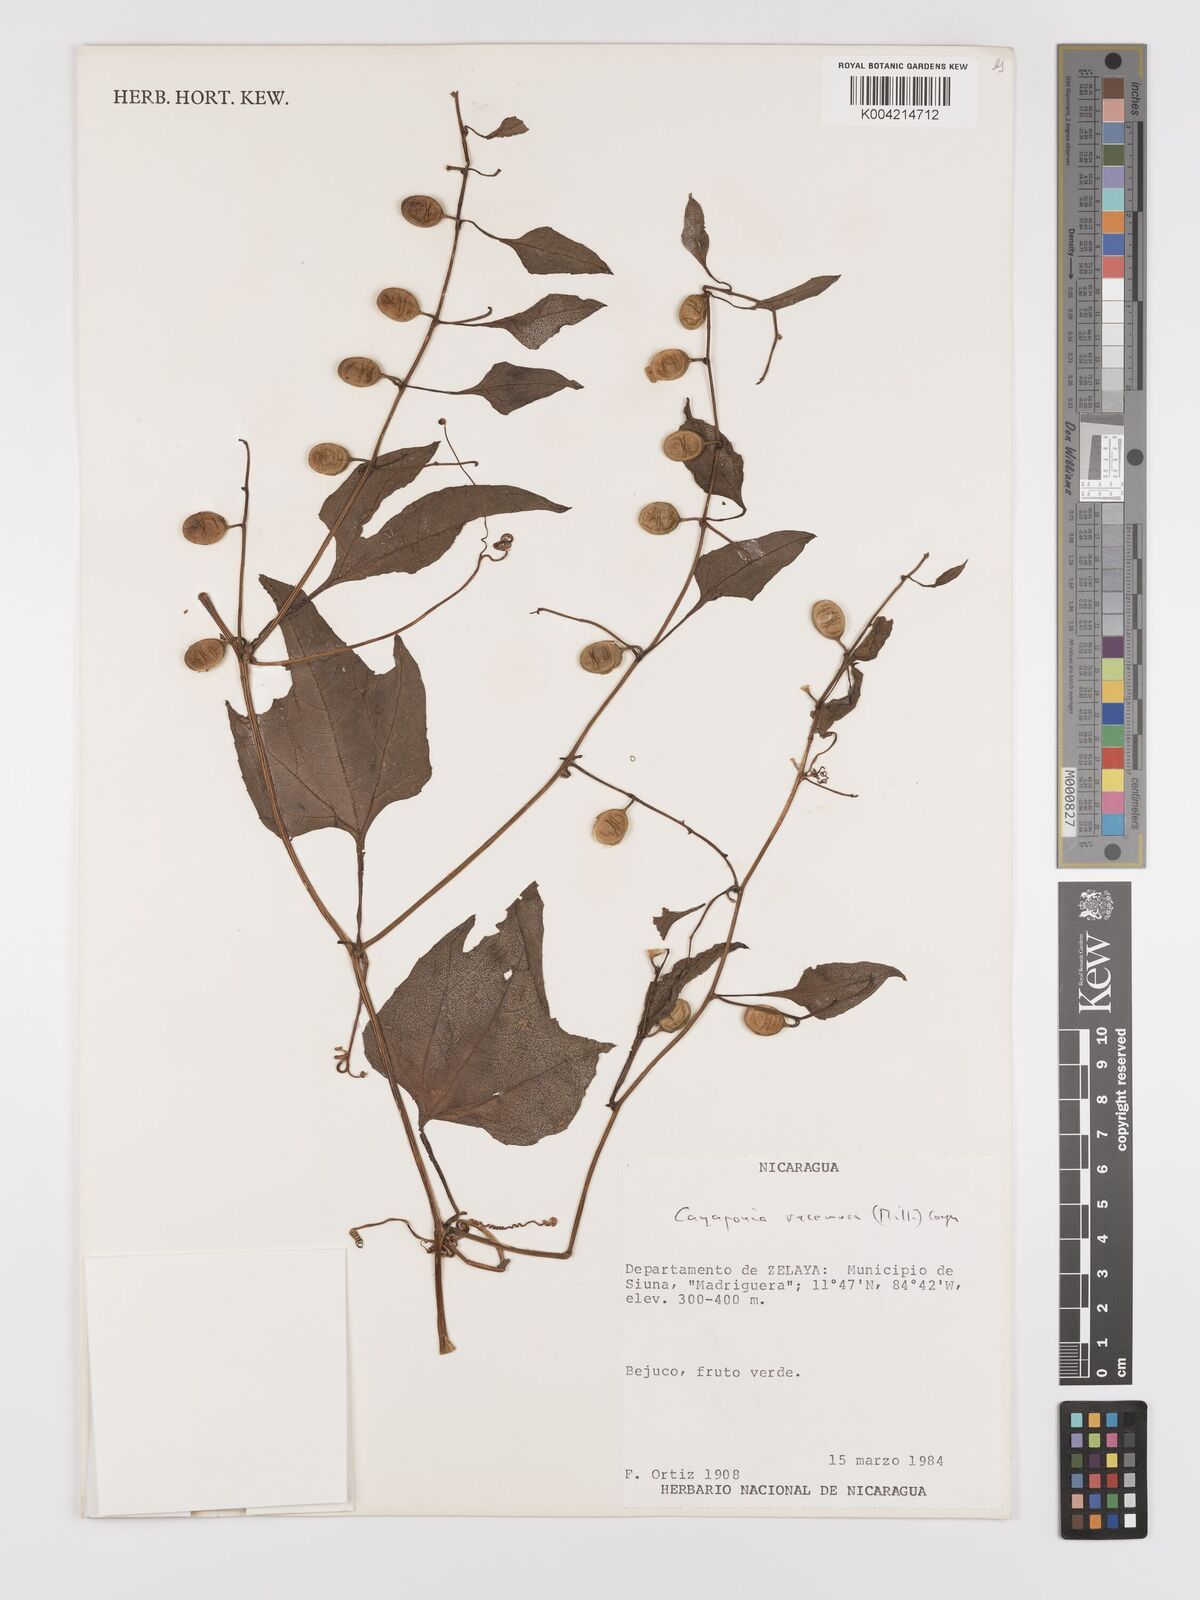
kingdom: Plantae
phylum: Tracheophyta
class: Magnoliopsida
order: Cucurbitales
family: Cucurbitaceae
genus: Cayaponia
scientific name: Cayaponia racemosa
